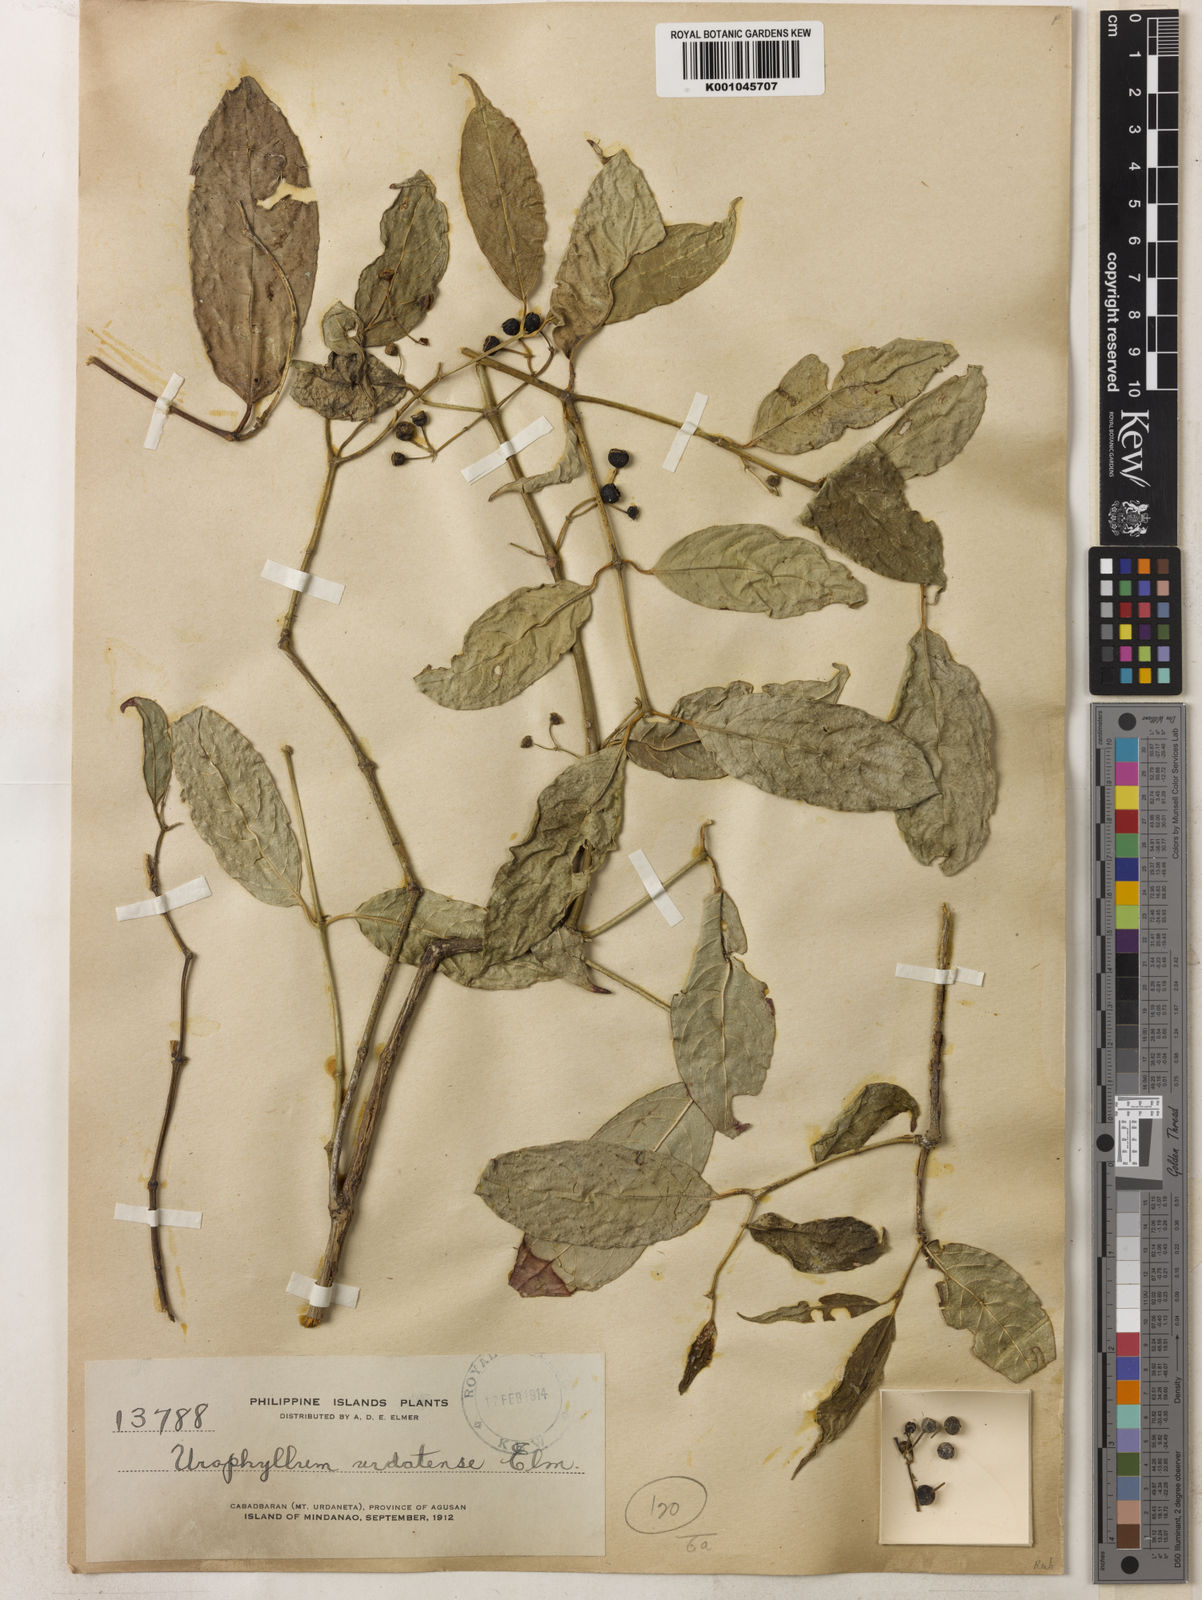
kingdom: Plantae
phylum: Tracheophyta
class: Magnoliopsida
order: Gentianales
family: Rubiaceae
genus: Urophyllum
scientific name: Urophyllum urdanetense
